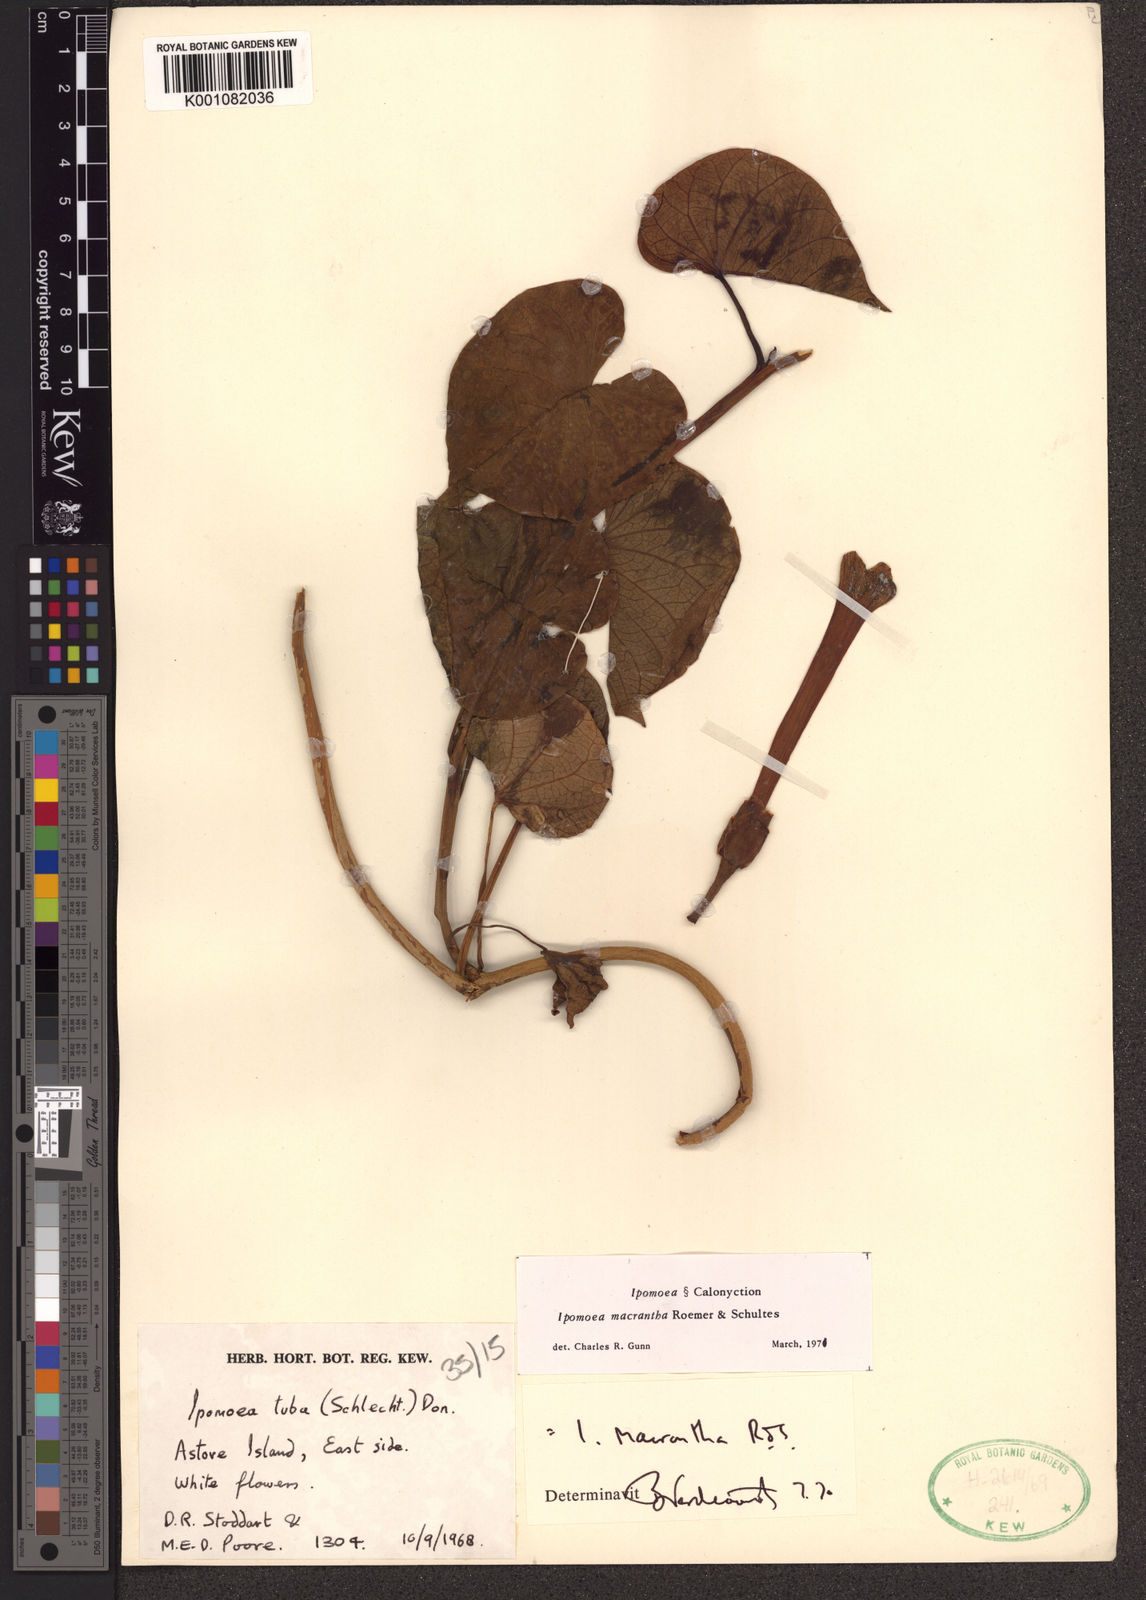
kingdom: Plantae
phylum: Tracheophyta
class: Magnoliopsida
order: Solanales
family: Convolvulaceae
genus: Ipomoea
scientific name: Ipomoea violacea
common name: Beach moonflower
